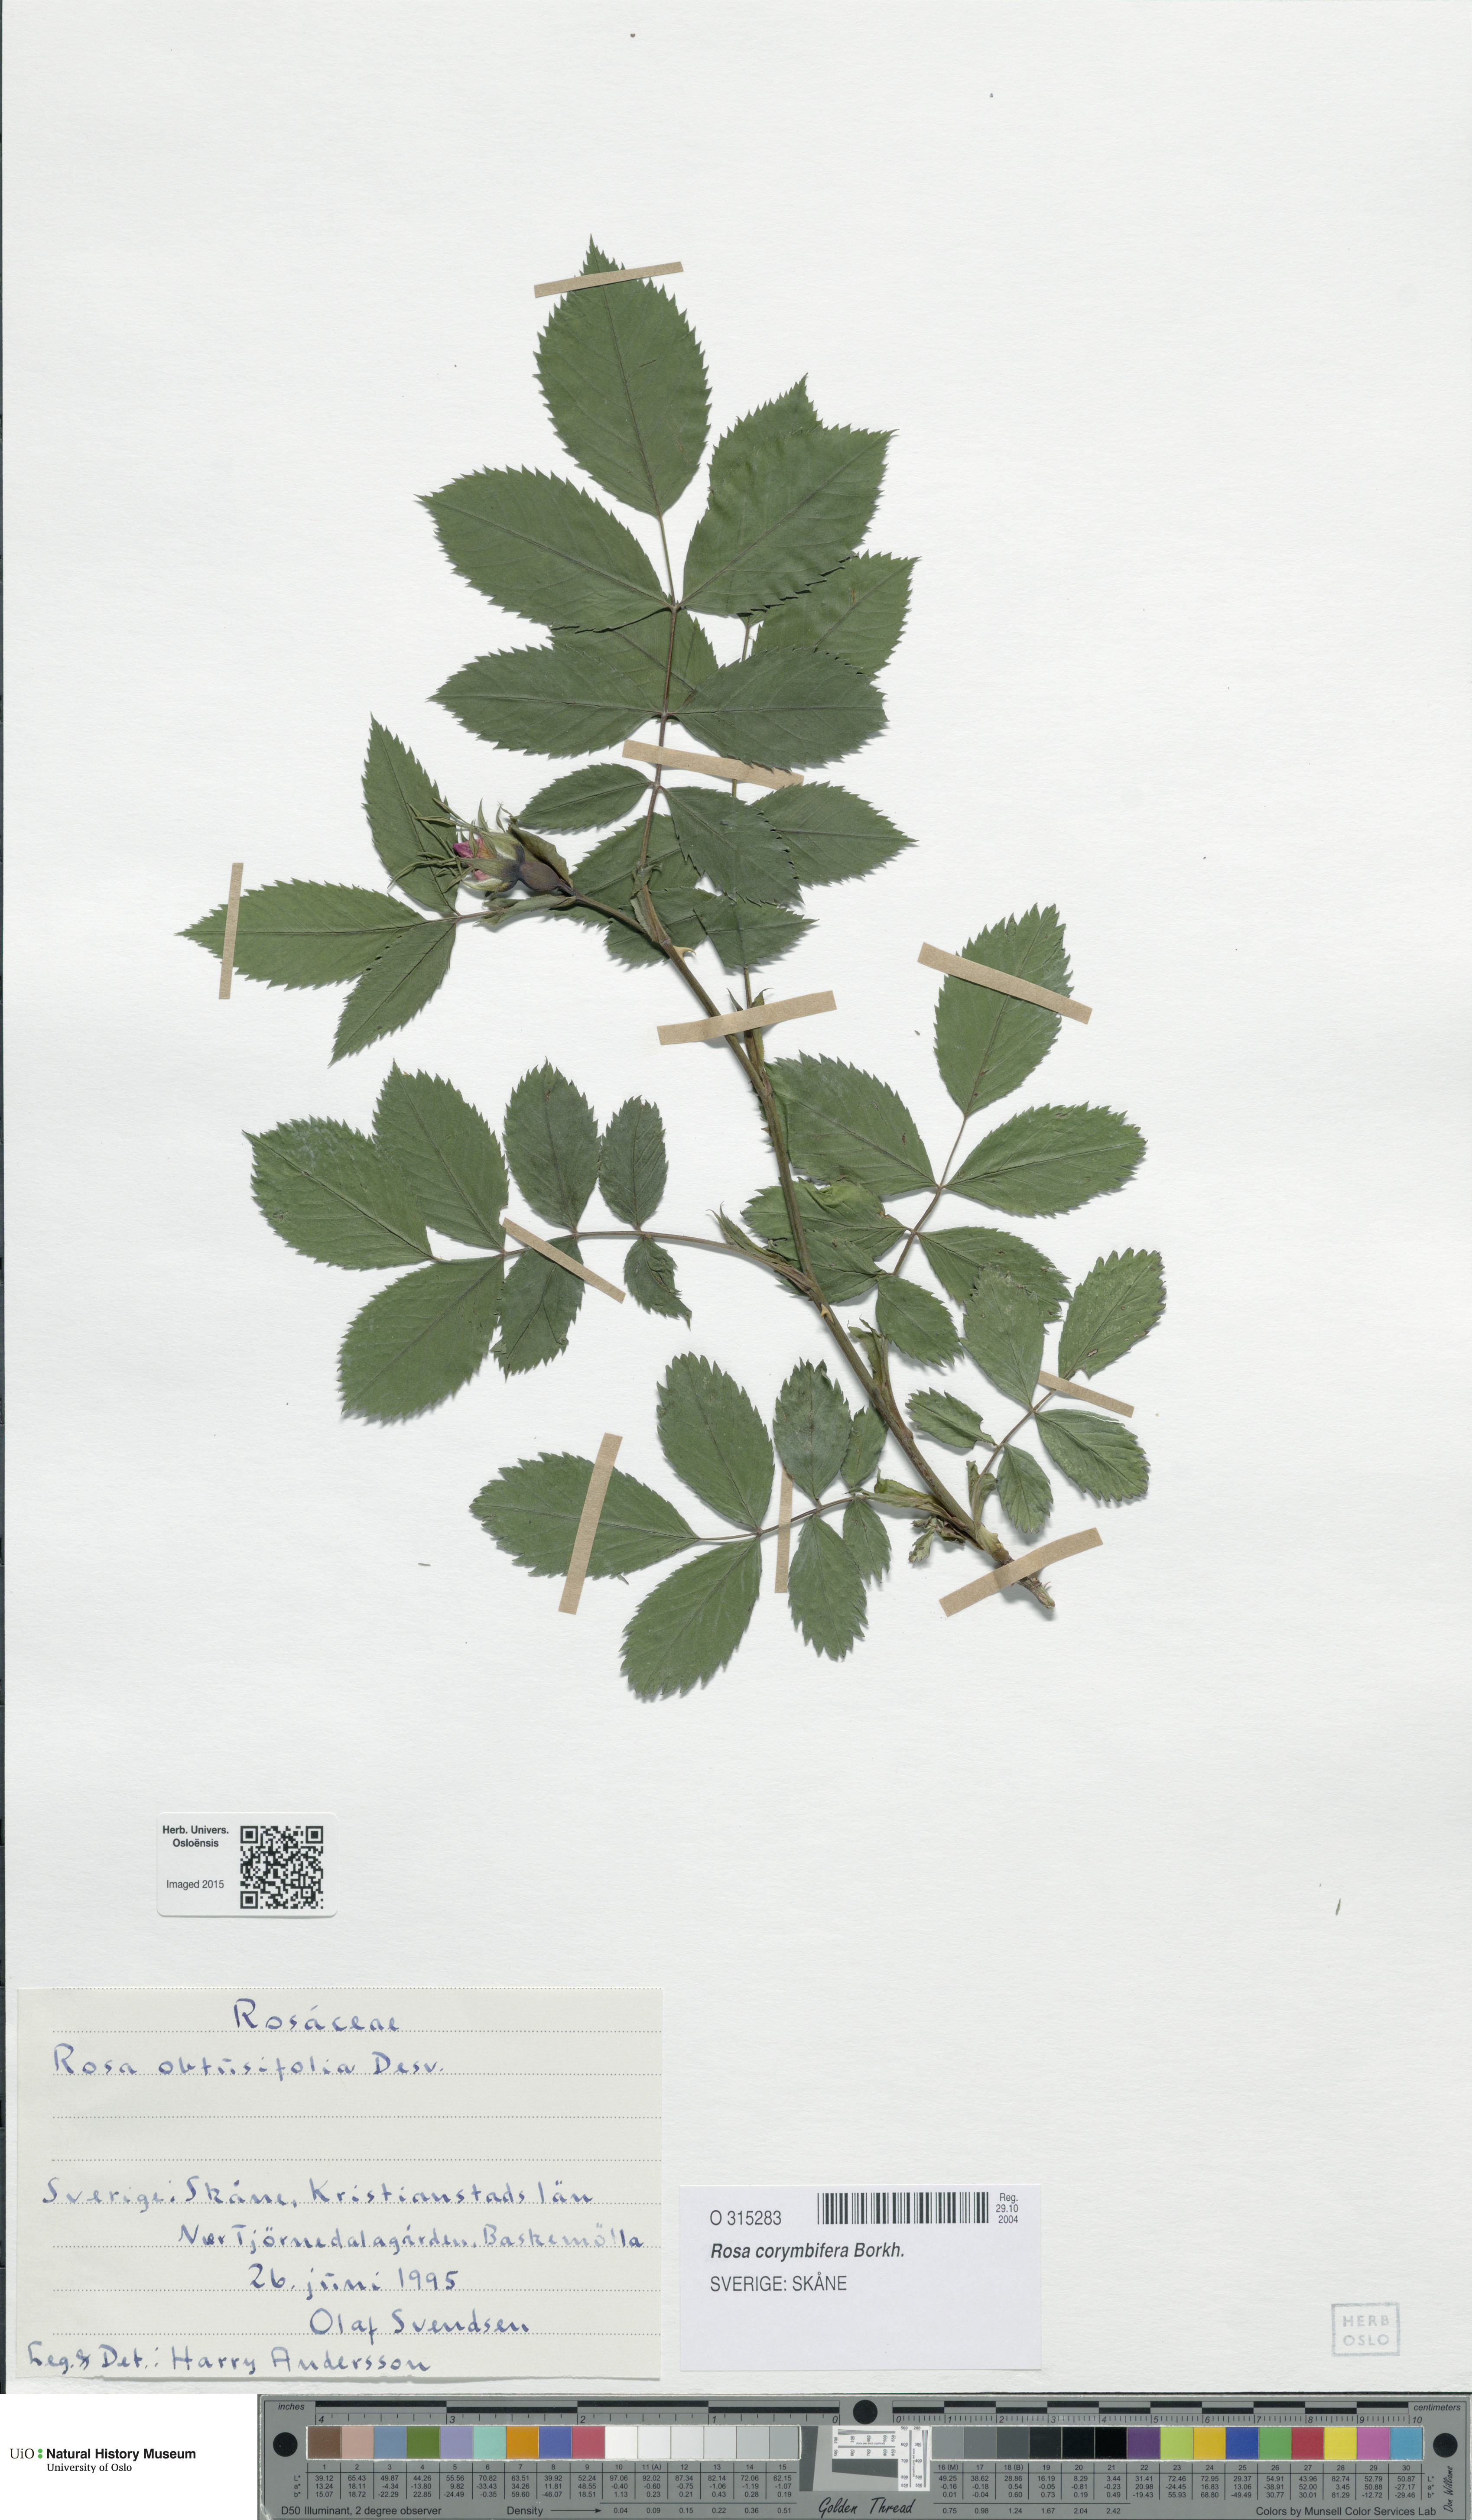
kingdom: Plantae
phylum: Tracheophyta
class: Magnoliopsida
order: Rosales
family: Rosaceae
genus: Rosa
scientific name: Rosa obtusifolia
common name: Round-leaved dog-rose
